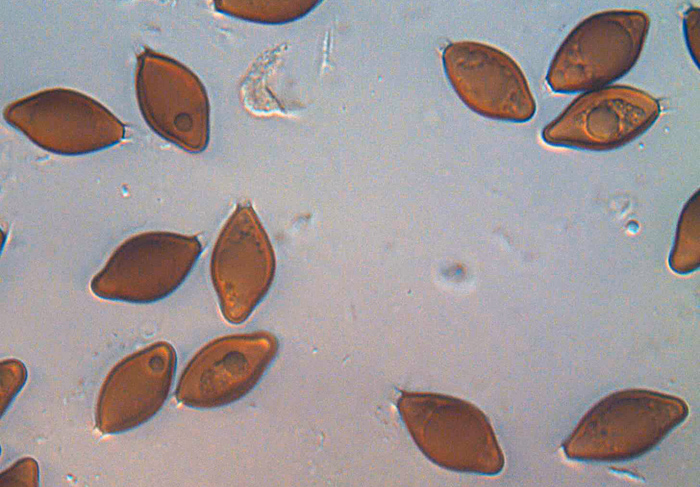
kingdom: Fungi
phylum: Basidiomycota
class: Agaricomycetes
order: Boletales
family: Paxillaceae
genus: Melanogaster
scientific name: Melanogaster ambiguus
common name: lille slimtrøffel
